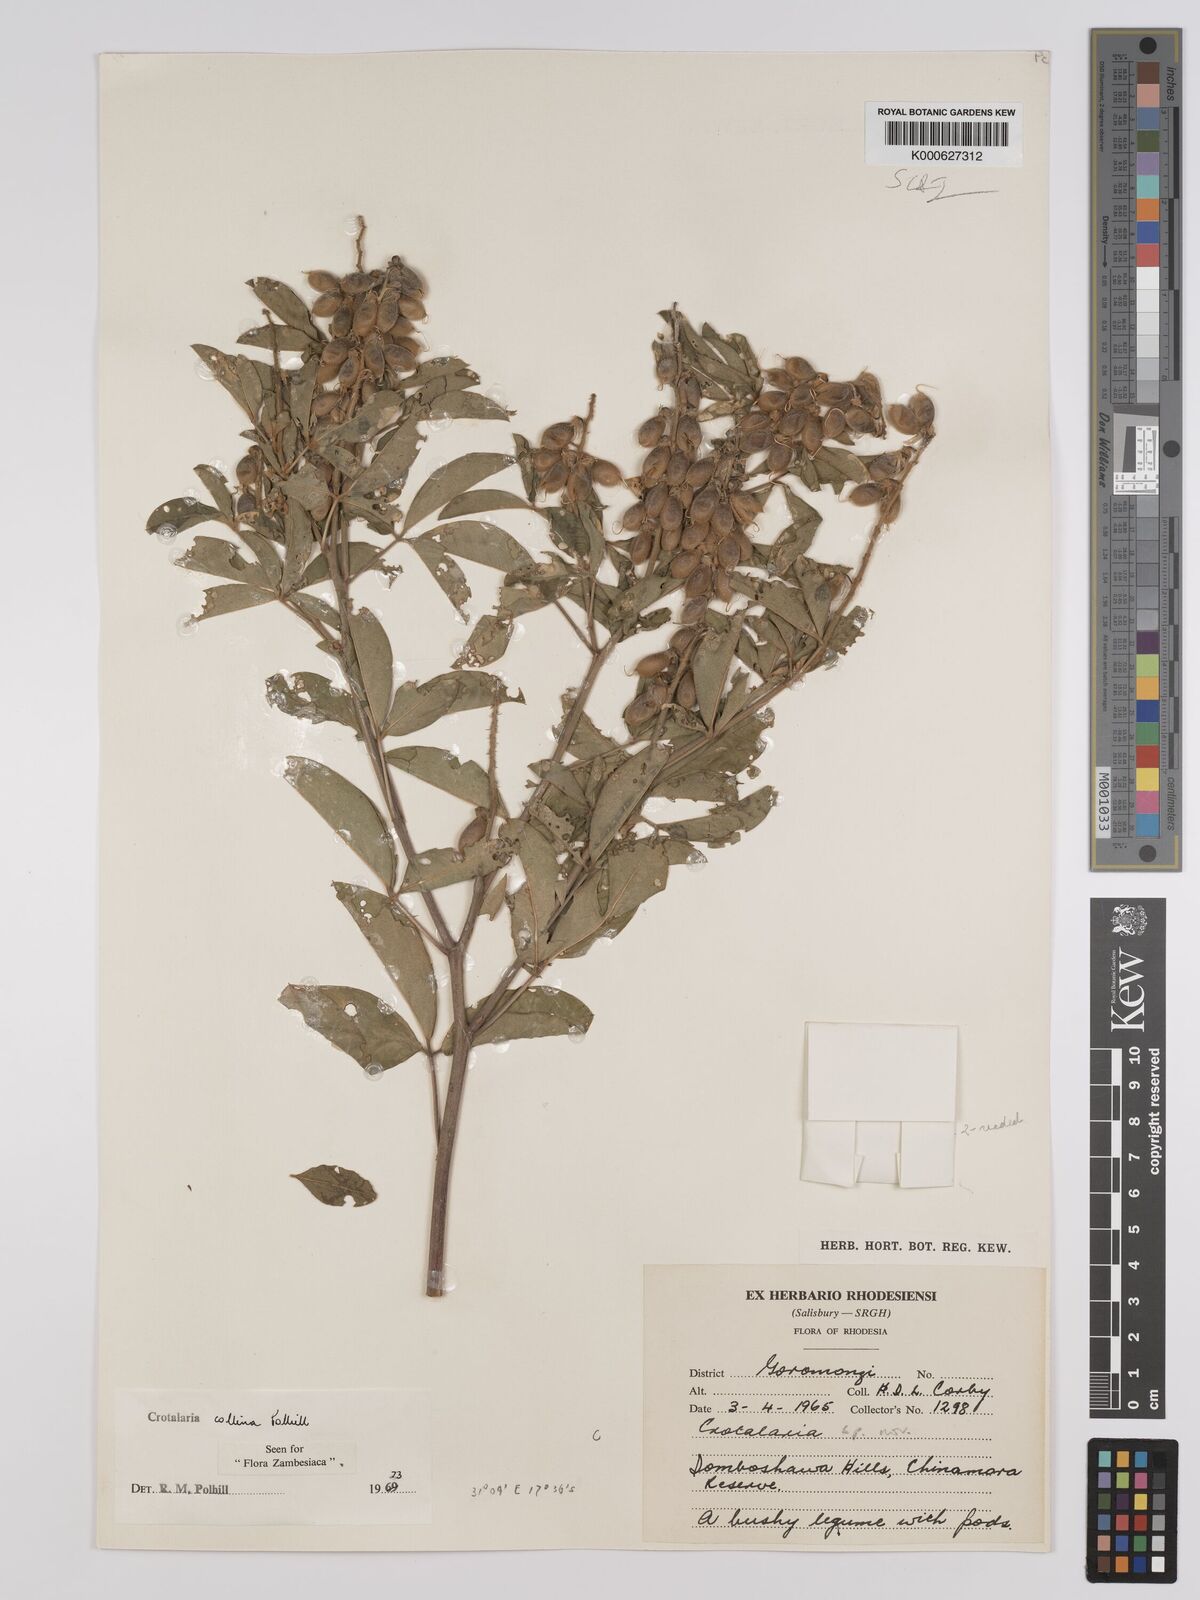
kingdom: Plantae
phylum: Tracheophyta
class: Magnoliopsida
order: Fabales
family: Fabaceae
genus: Crotalaria
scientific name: Crotalaria collina
